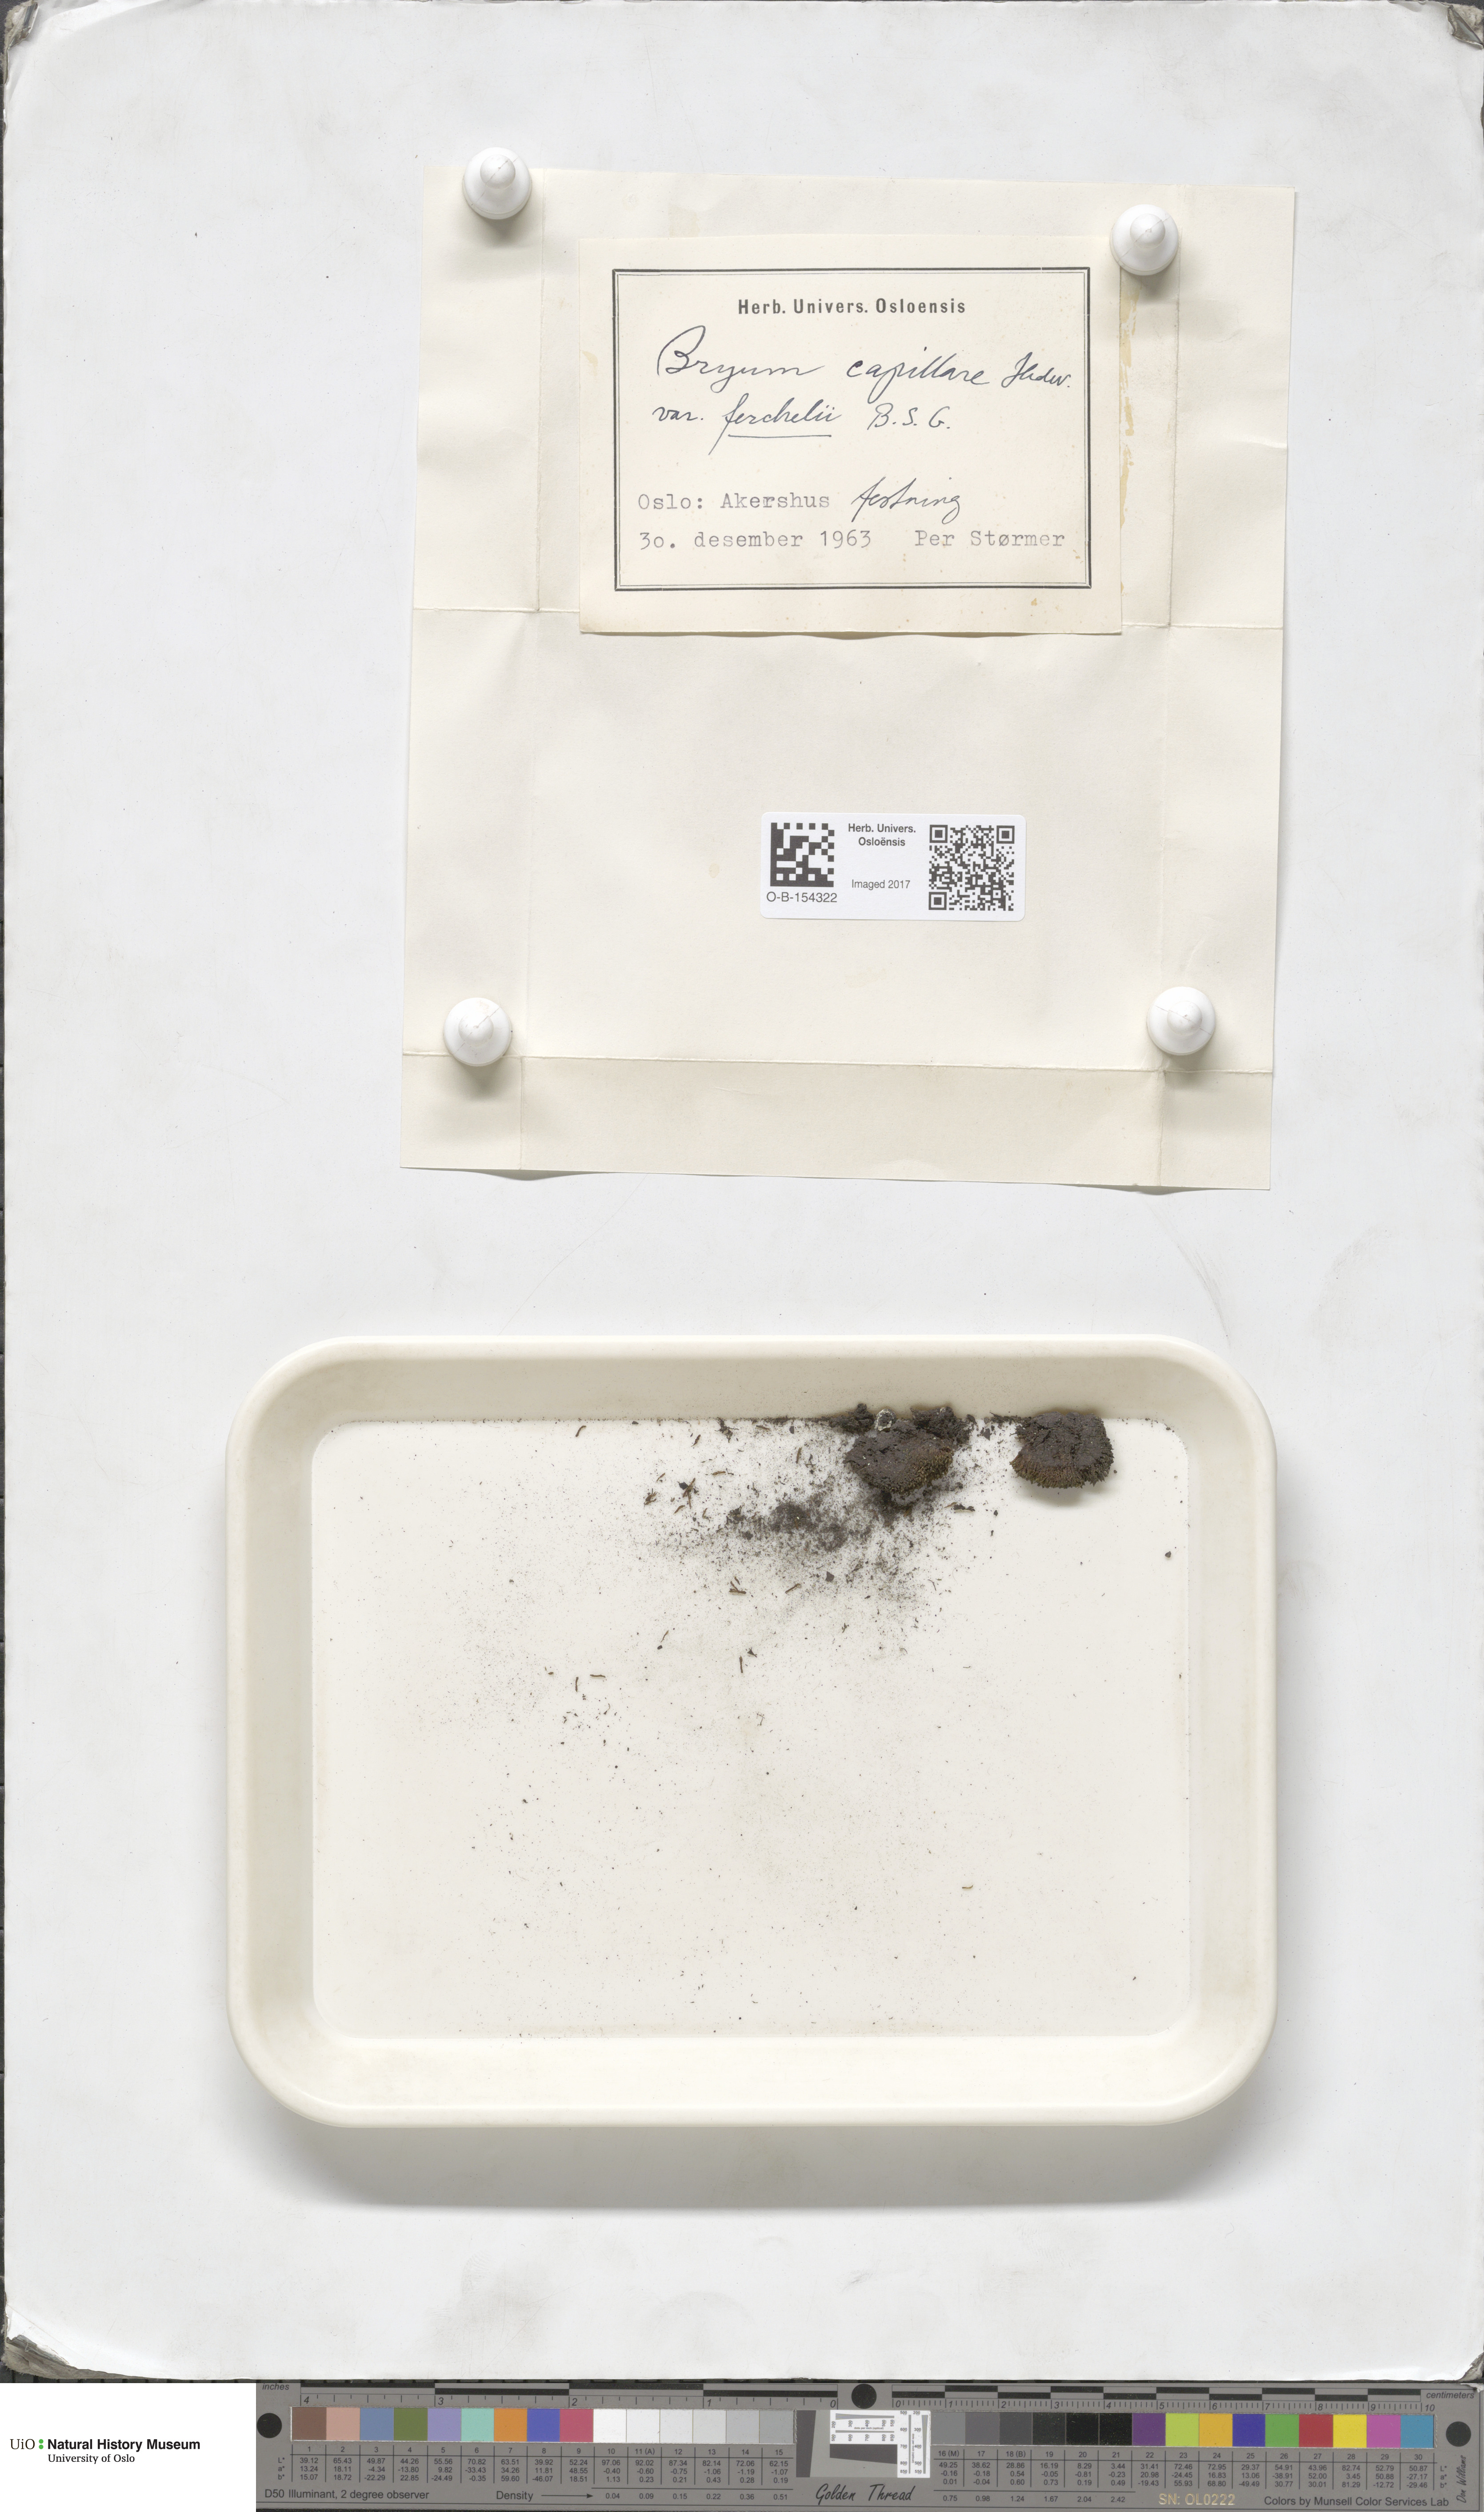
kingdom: Plantae
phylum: Bryophyta
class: Bryopsida
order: Bryales
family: Bryaceae
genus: Rosulabryum
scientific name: Rosulabryum elegans
